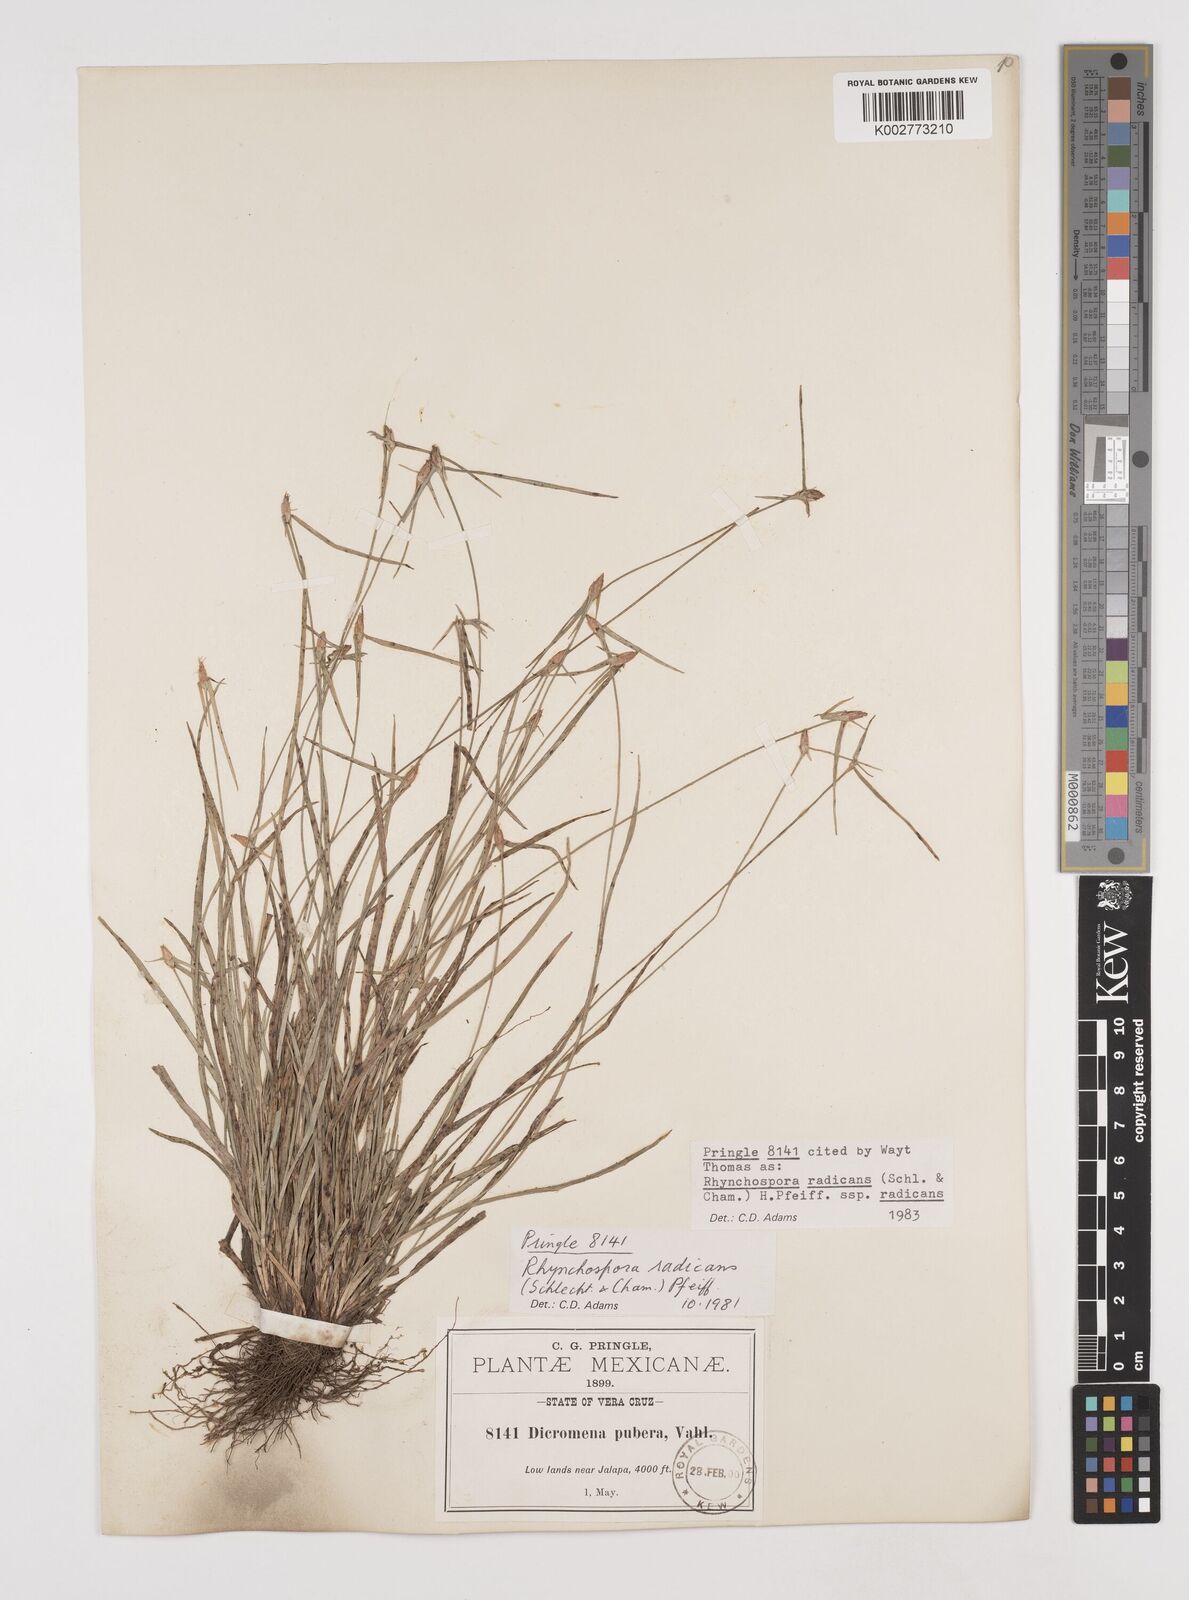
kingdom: Plantae
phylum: Tracheophyta
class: Liliopsida
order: Poales
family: Cyperaceae
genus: Rhynchospora
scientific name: Rhynchospora radicans
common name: Tropical whitetop
